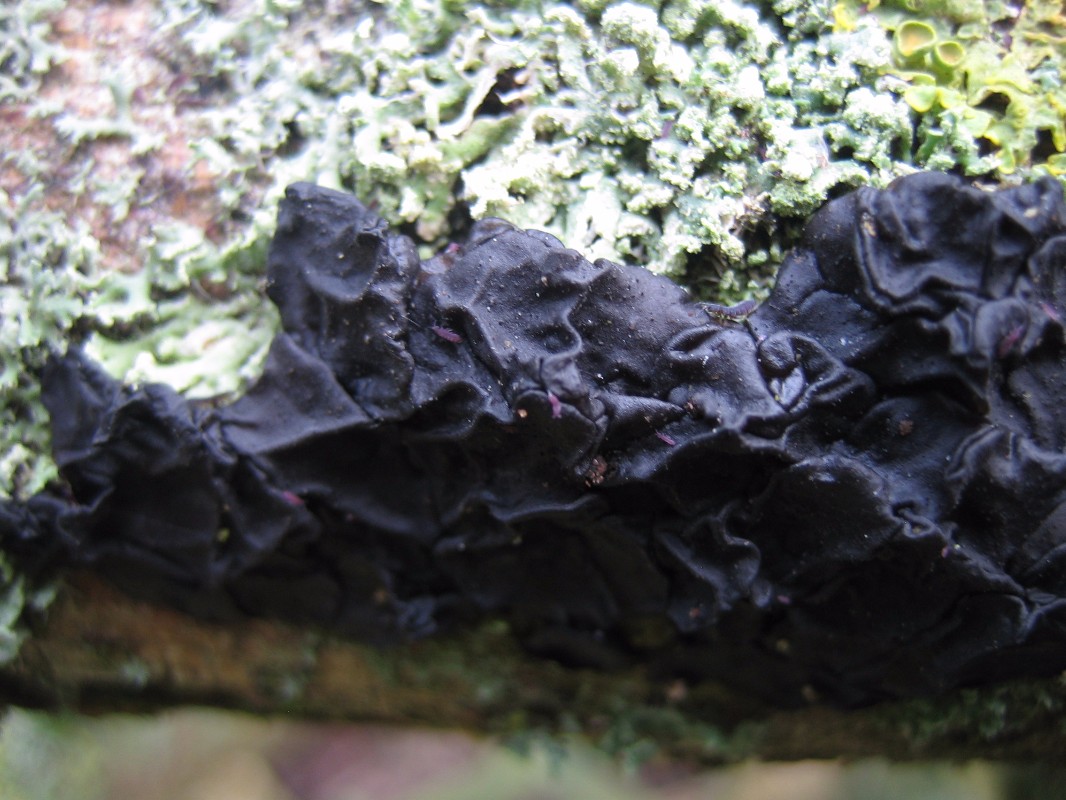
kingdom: Fungi
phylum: Basidiomycota
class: Agaricomycetes
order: Auriculariales
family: Auriculariaceae
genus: Exidia
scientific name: Exidia nigricans
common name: almindelig bævretop
